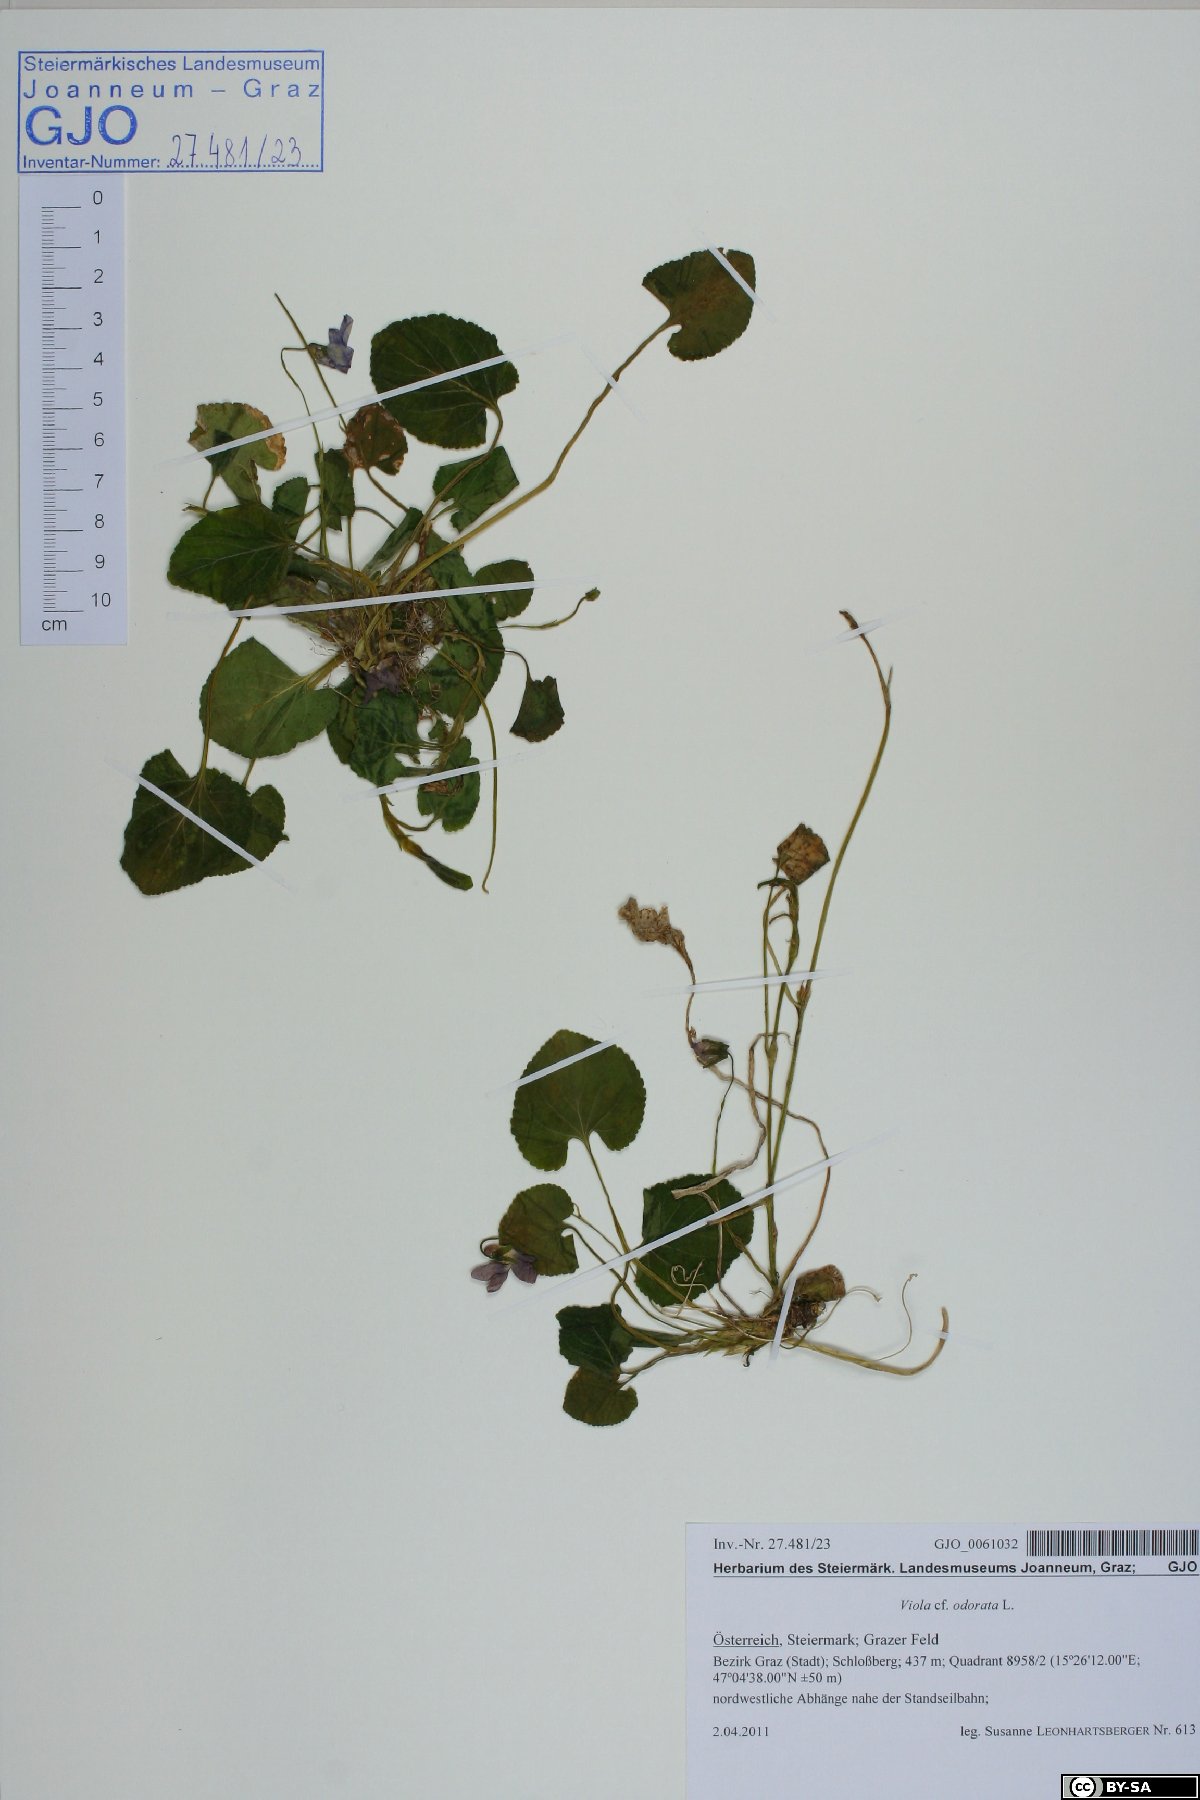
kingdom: Plantae
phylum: Tracheophyta
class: Magnoliopsida
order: Malpighiales
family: Violaceae
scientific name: Violaceae
